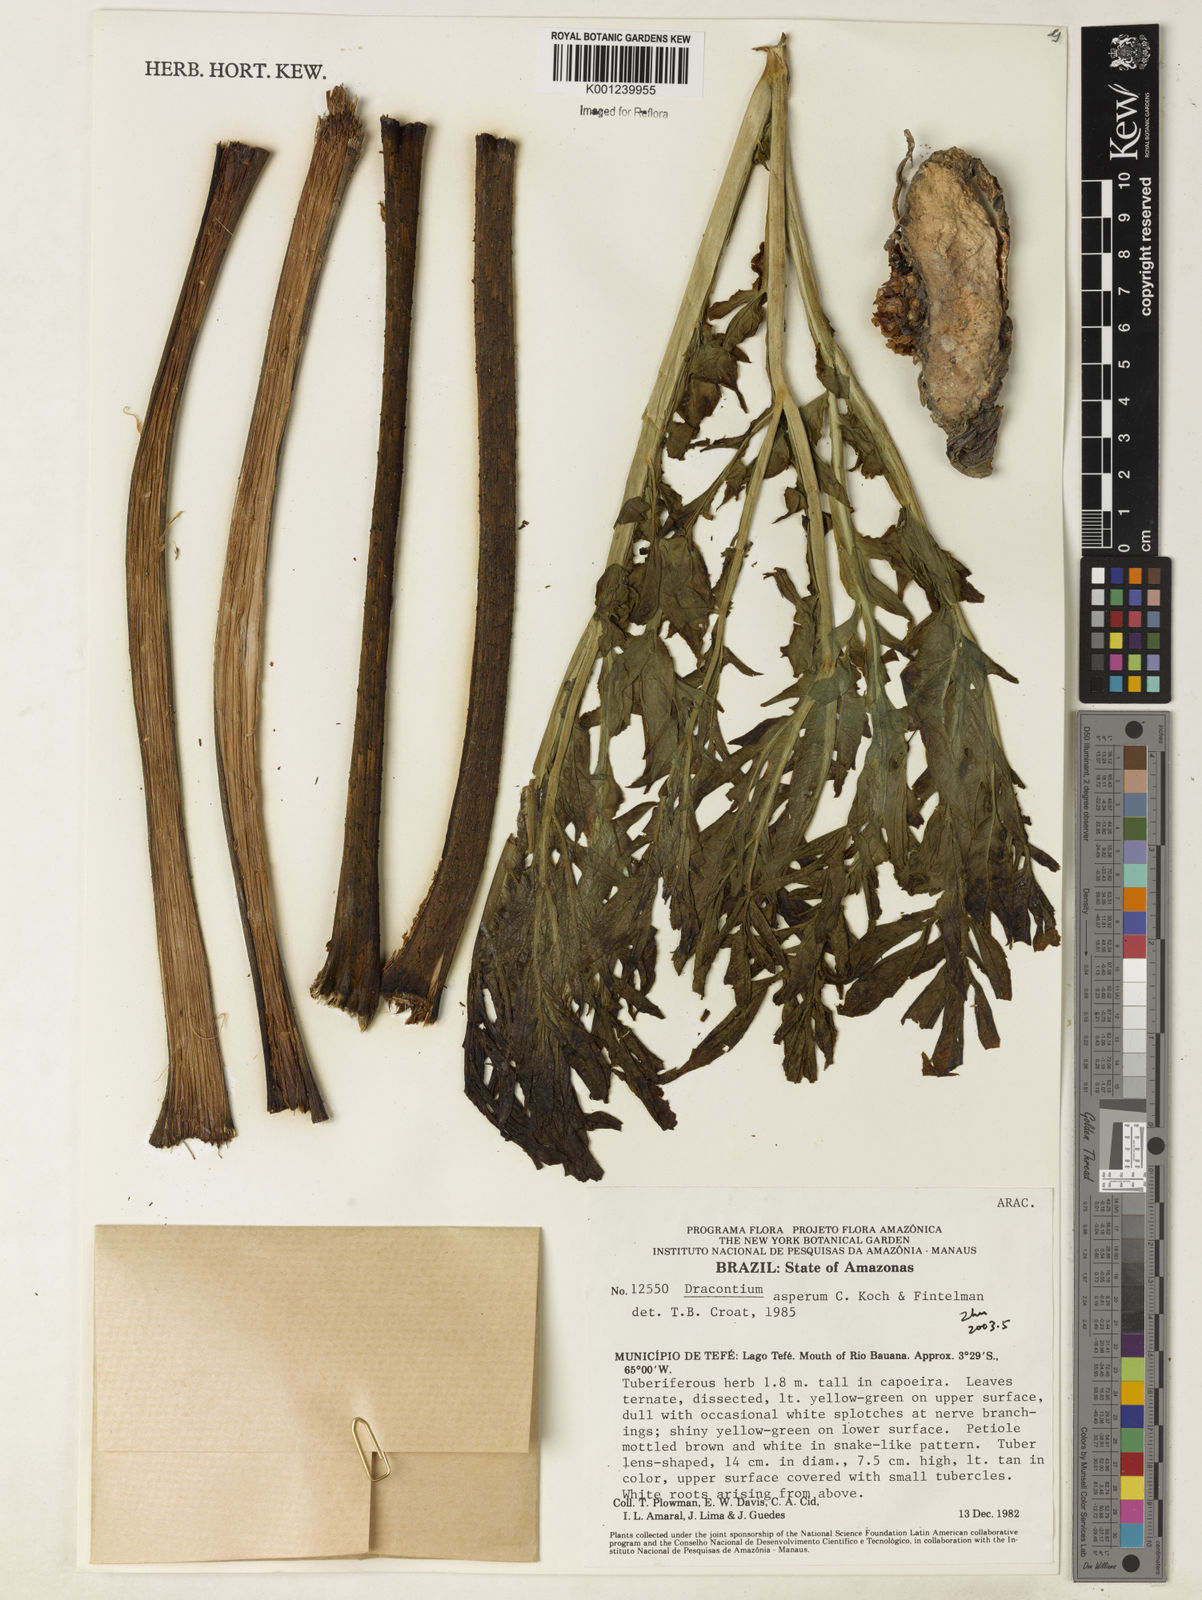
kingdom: Plantae
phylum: Tracheophyta
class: Liliopsida
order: Alismatales
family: Araceae
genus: Dracontium
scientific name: Dracontium asperum
